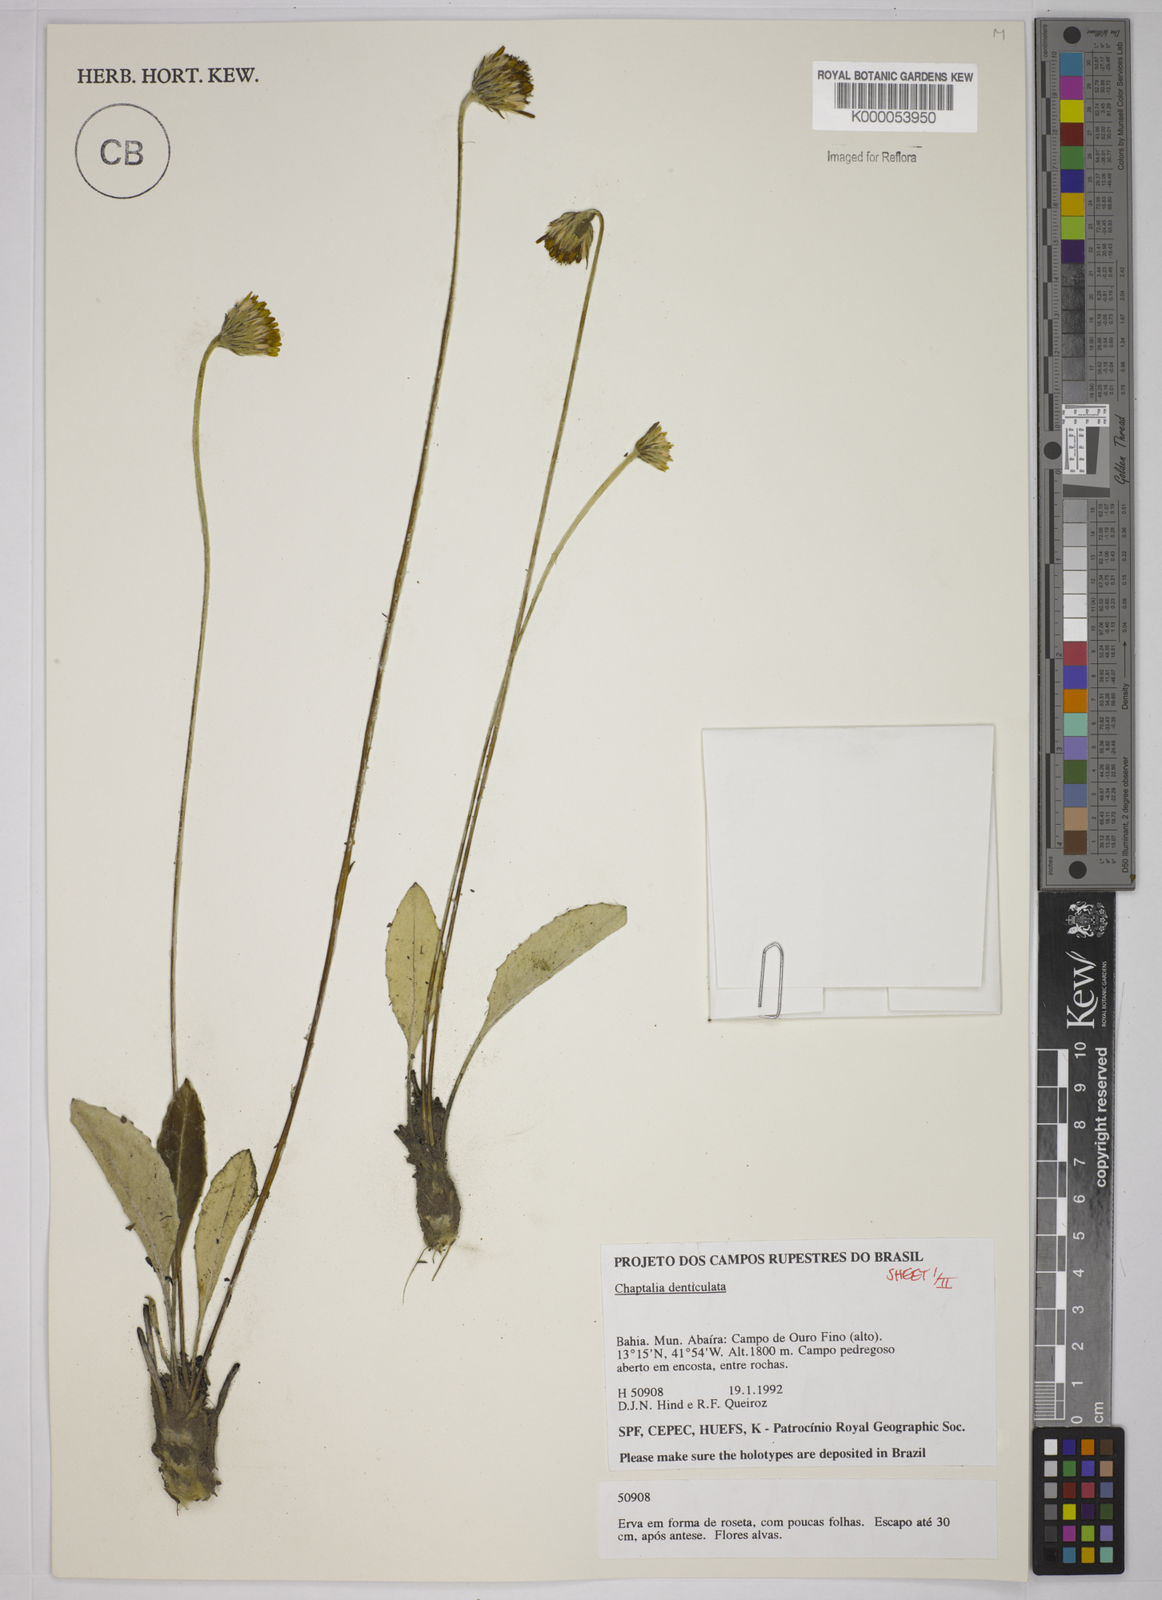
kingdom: Plantae
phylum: Tracheophyta
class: Magnoliopsida
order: Asterales
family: Asteraceae
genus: Chaptalia
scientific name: Chaptalia denticulata
